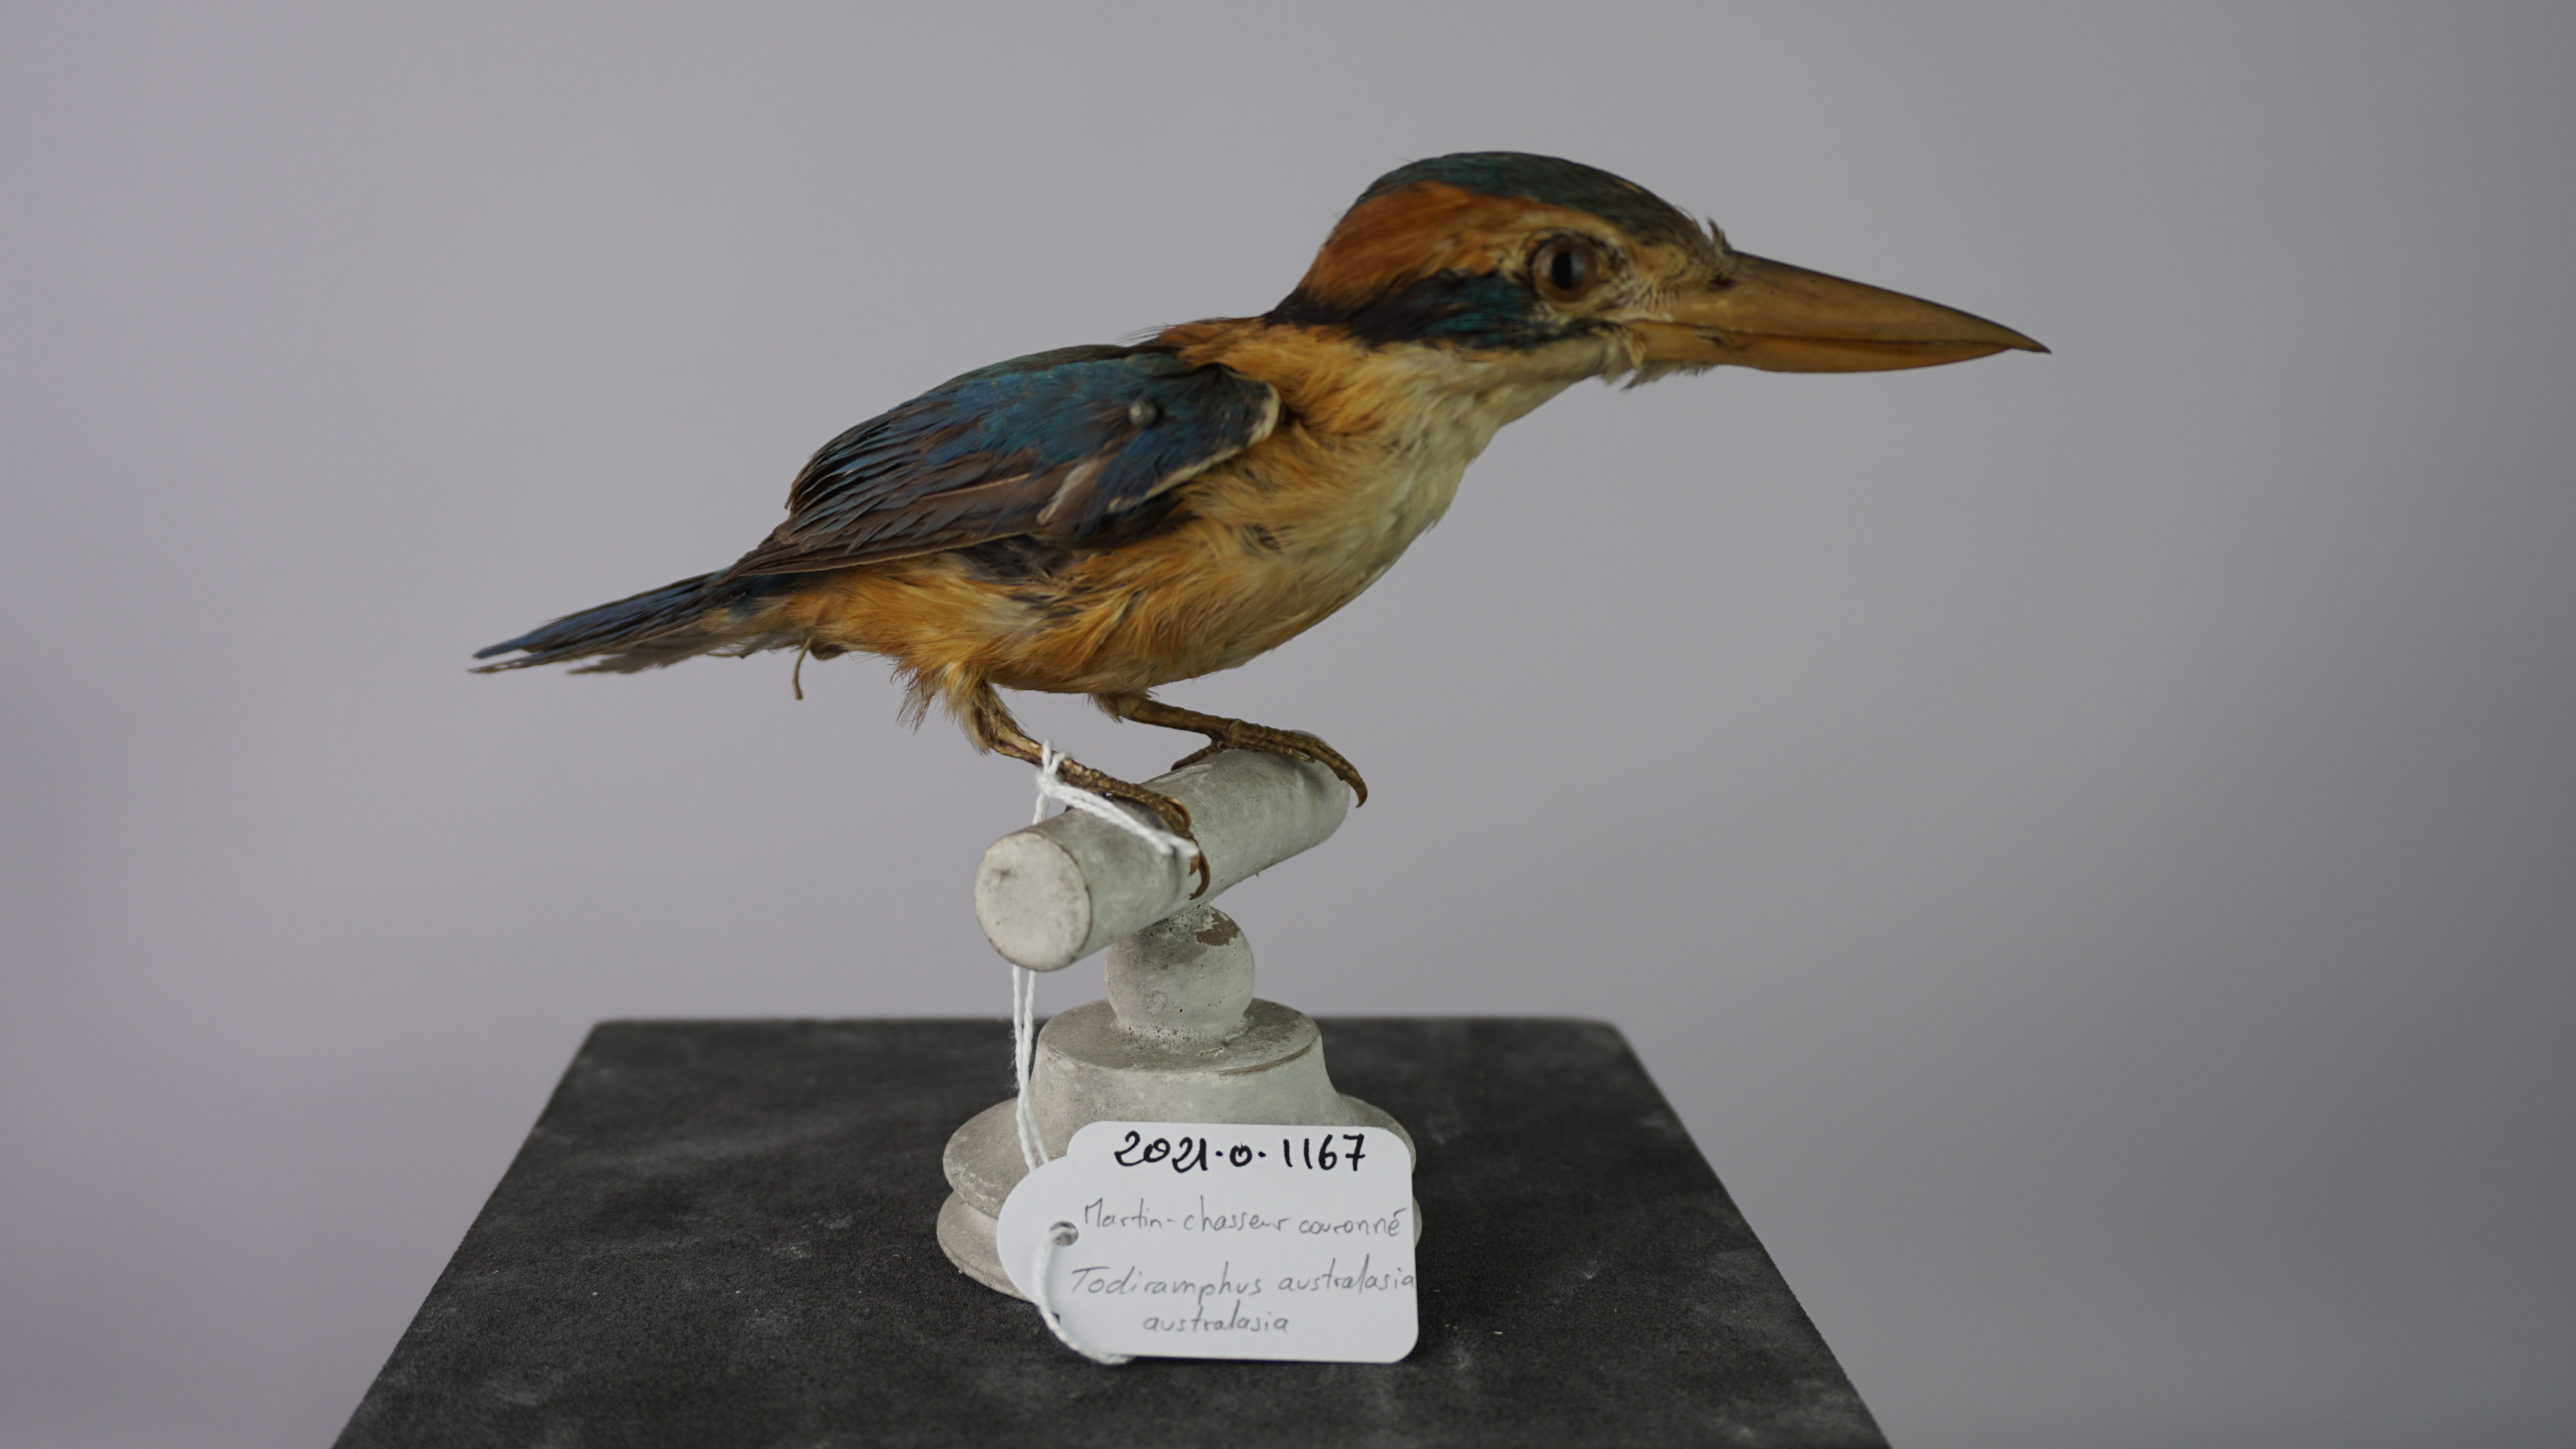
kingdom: Animalia
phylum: Chordata
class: Aves
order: Coraciiformes
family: Alcedinidae
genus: Todiramphus
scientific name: Todiramphus australasia
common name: Cinnamon-banded kingfisher
